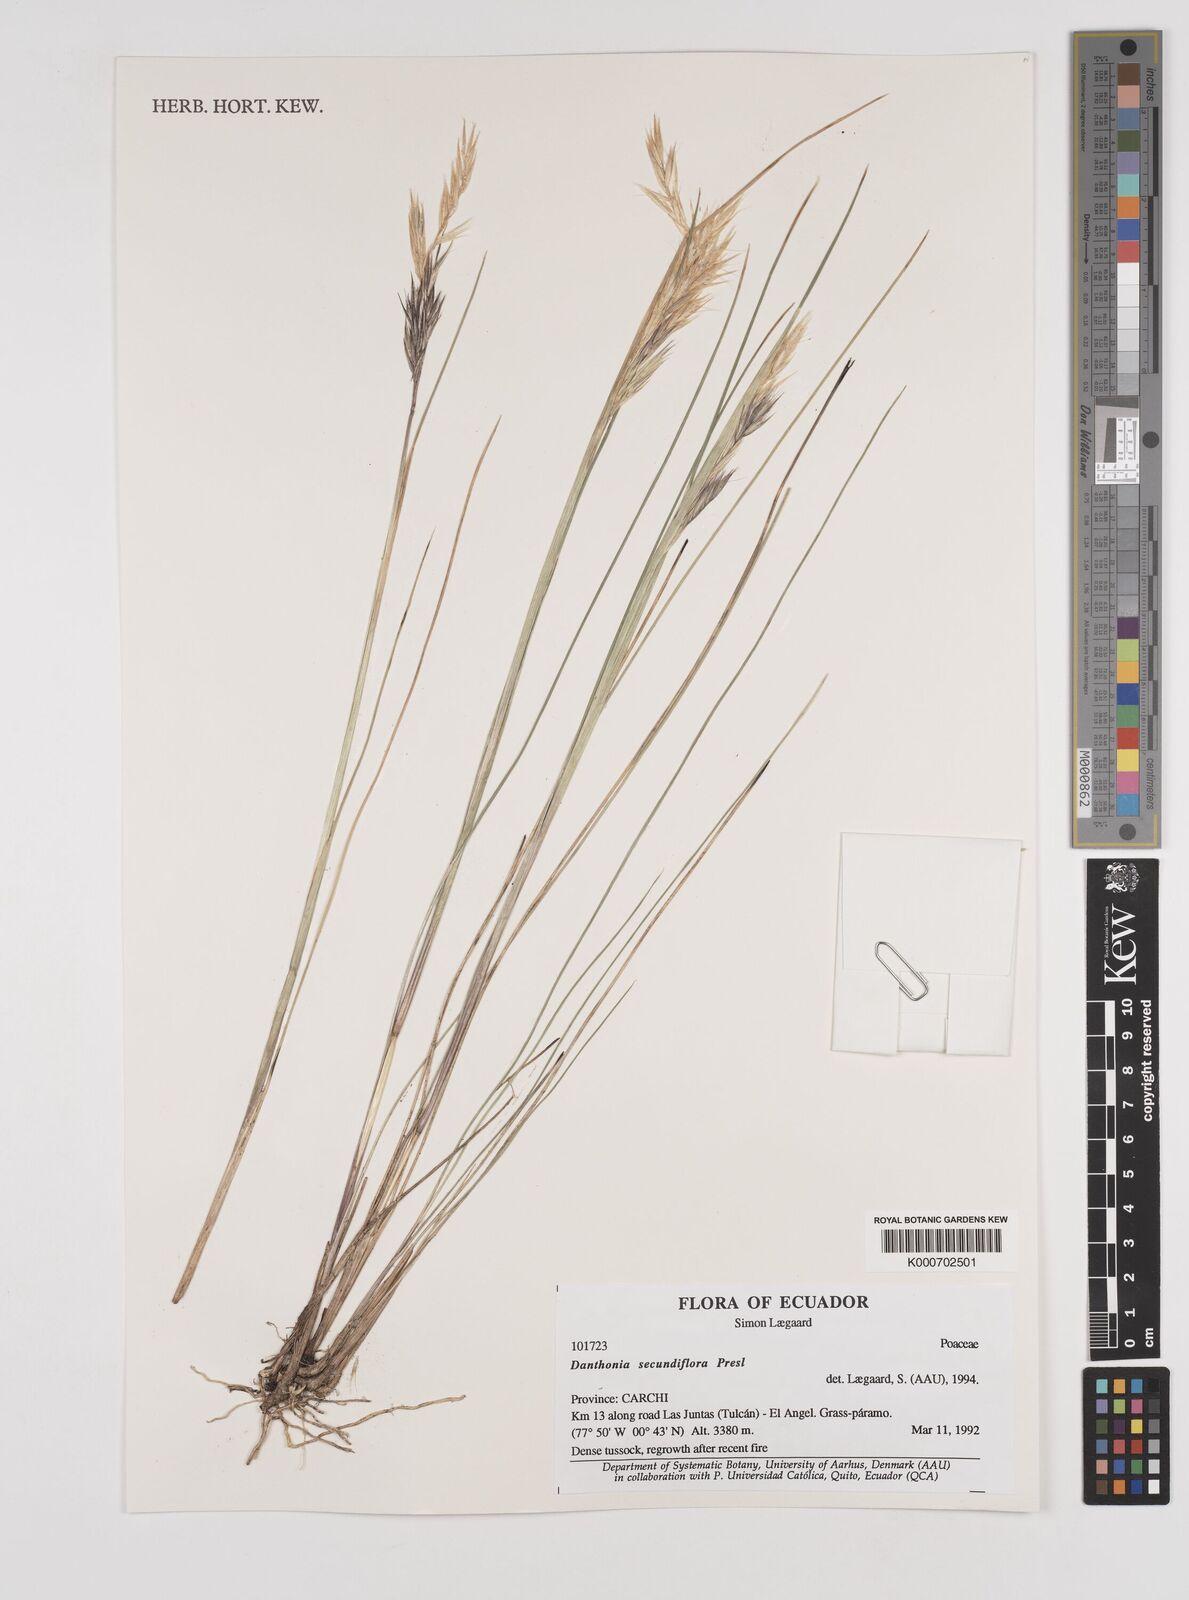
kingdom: Plantae
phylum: Tracheophyta
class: Liliopsida
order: Poales
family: Poaceae
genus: Danthonia
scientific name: Danthonia secundiflora
